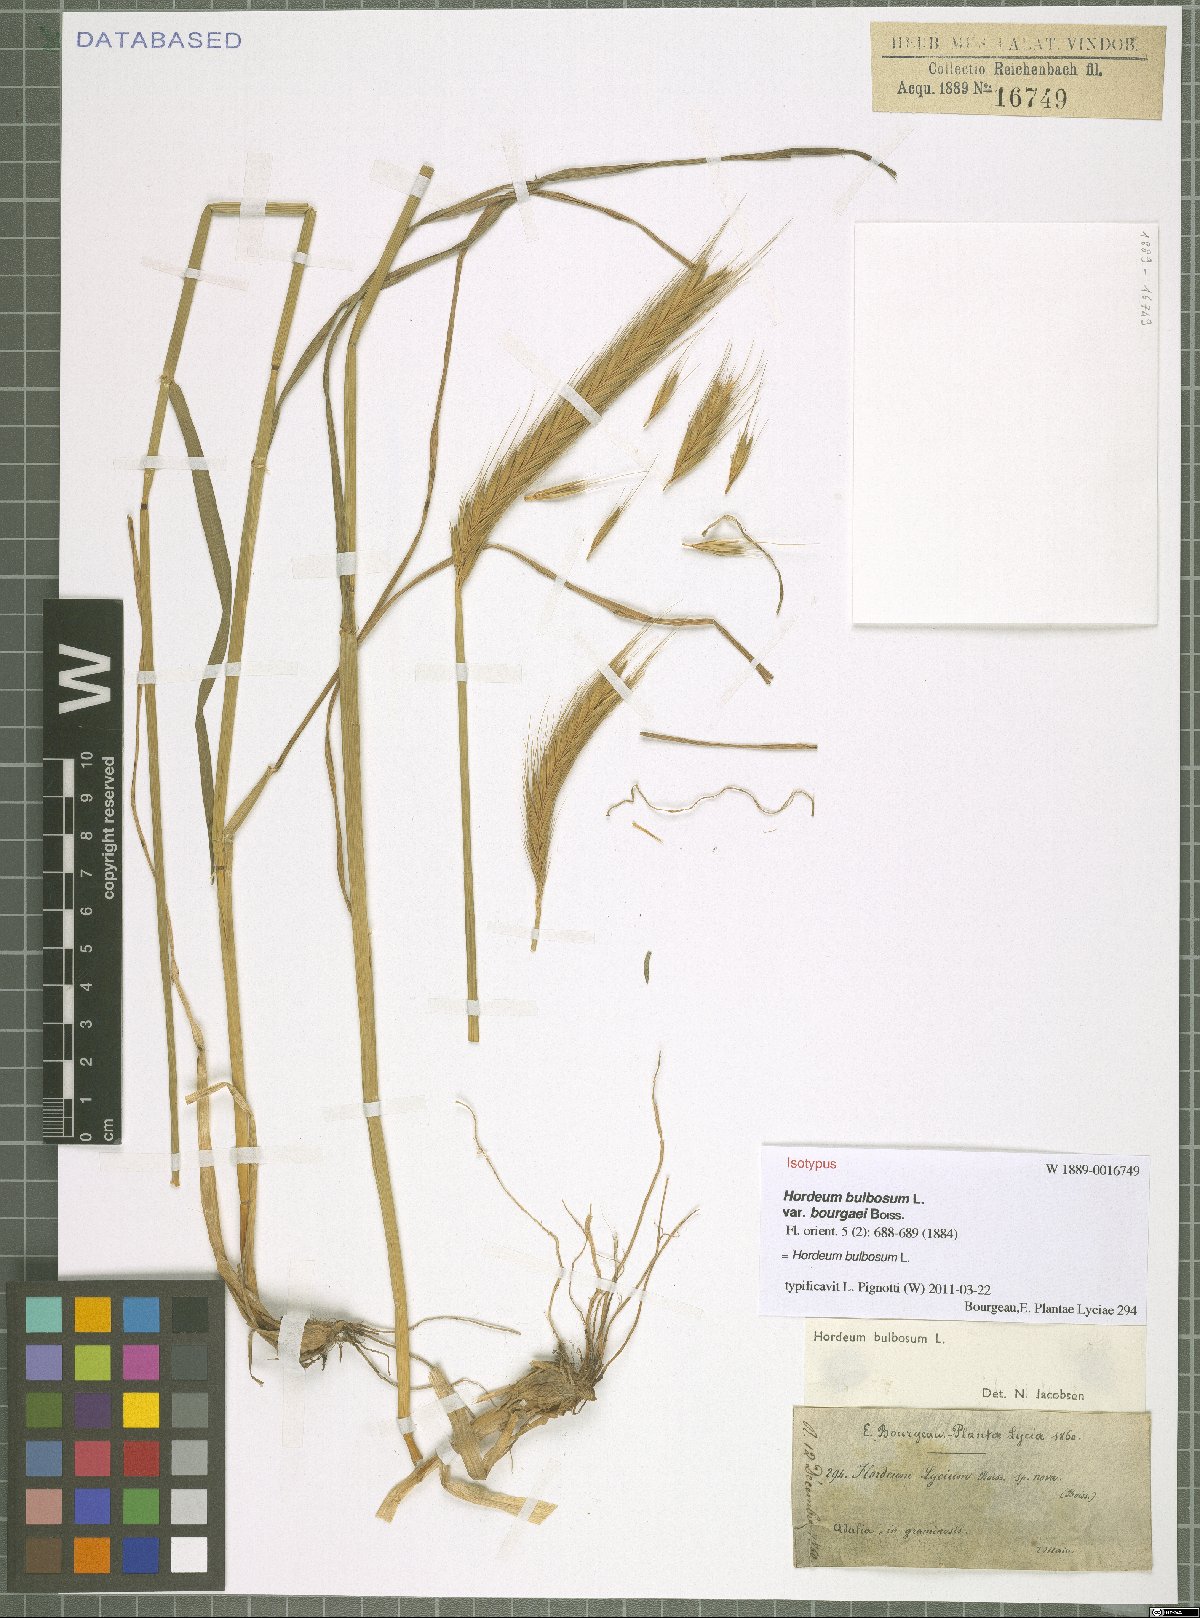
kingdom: Plantae
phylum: Tracheophyta
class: Liliopsida
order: Poales
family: Poaceae
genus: Hordeum
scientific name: Hordeum bulbosum
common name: Bulbous barley
